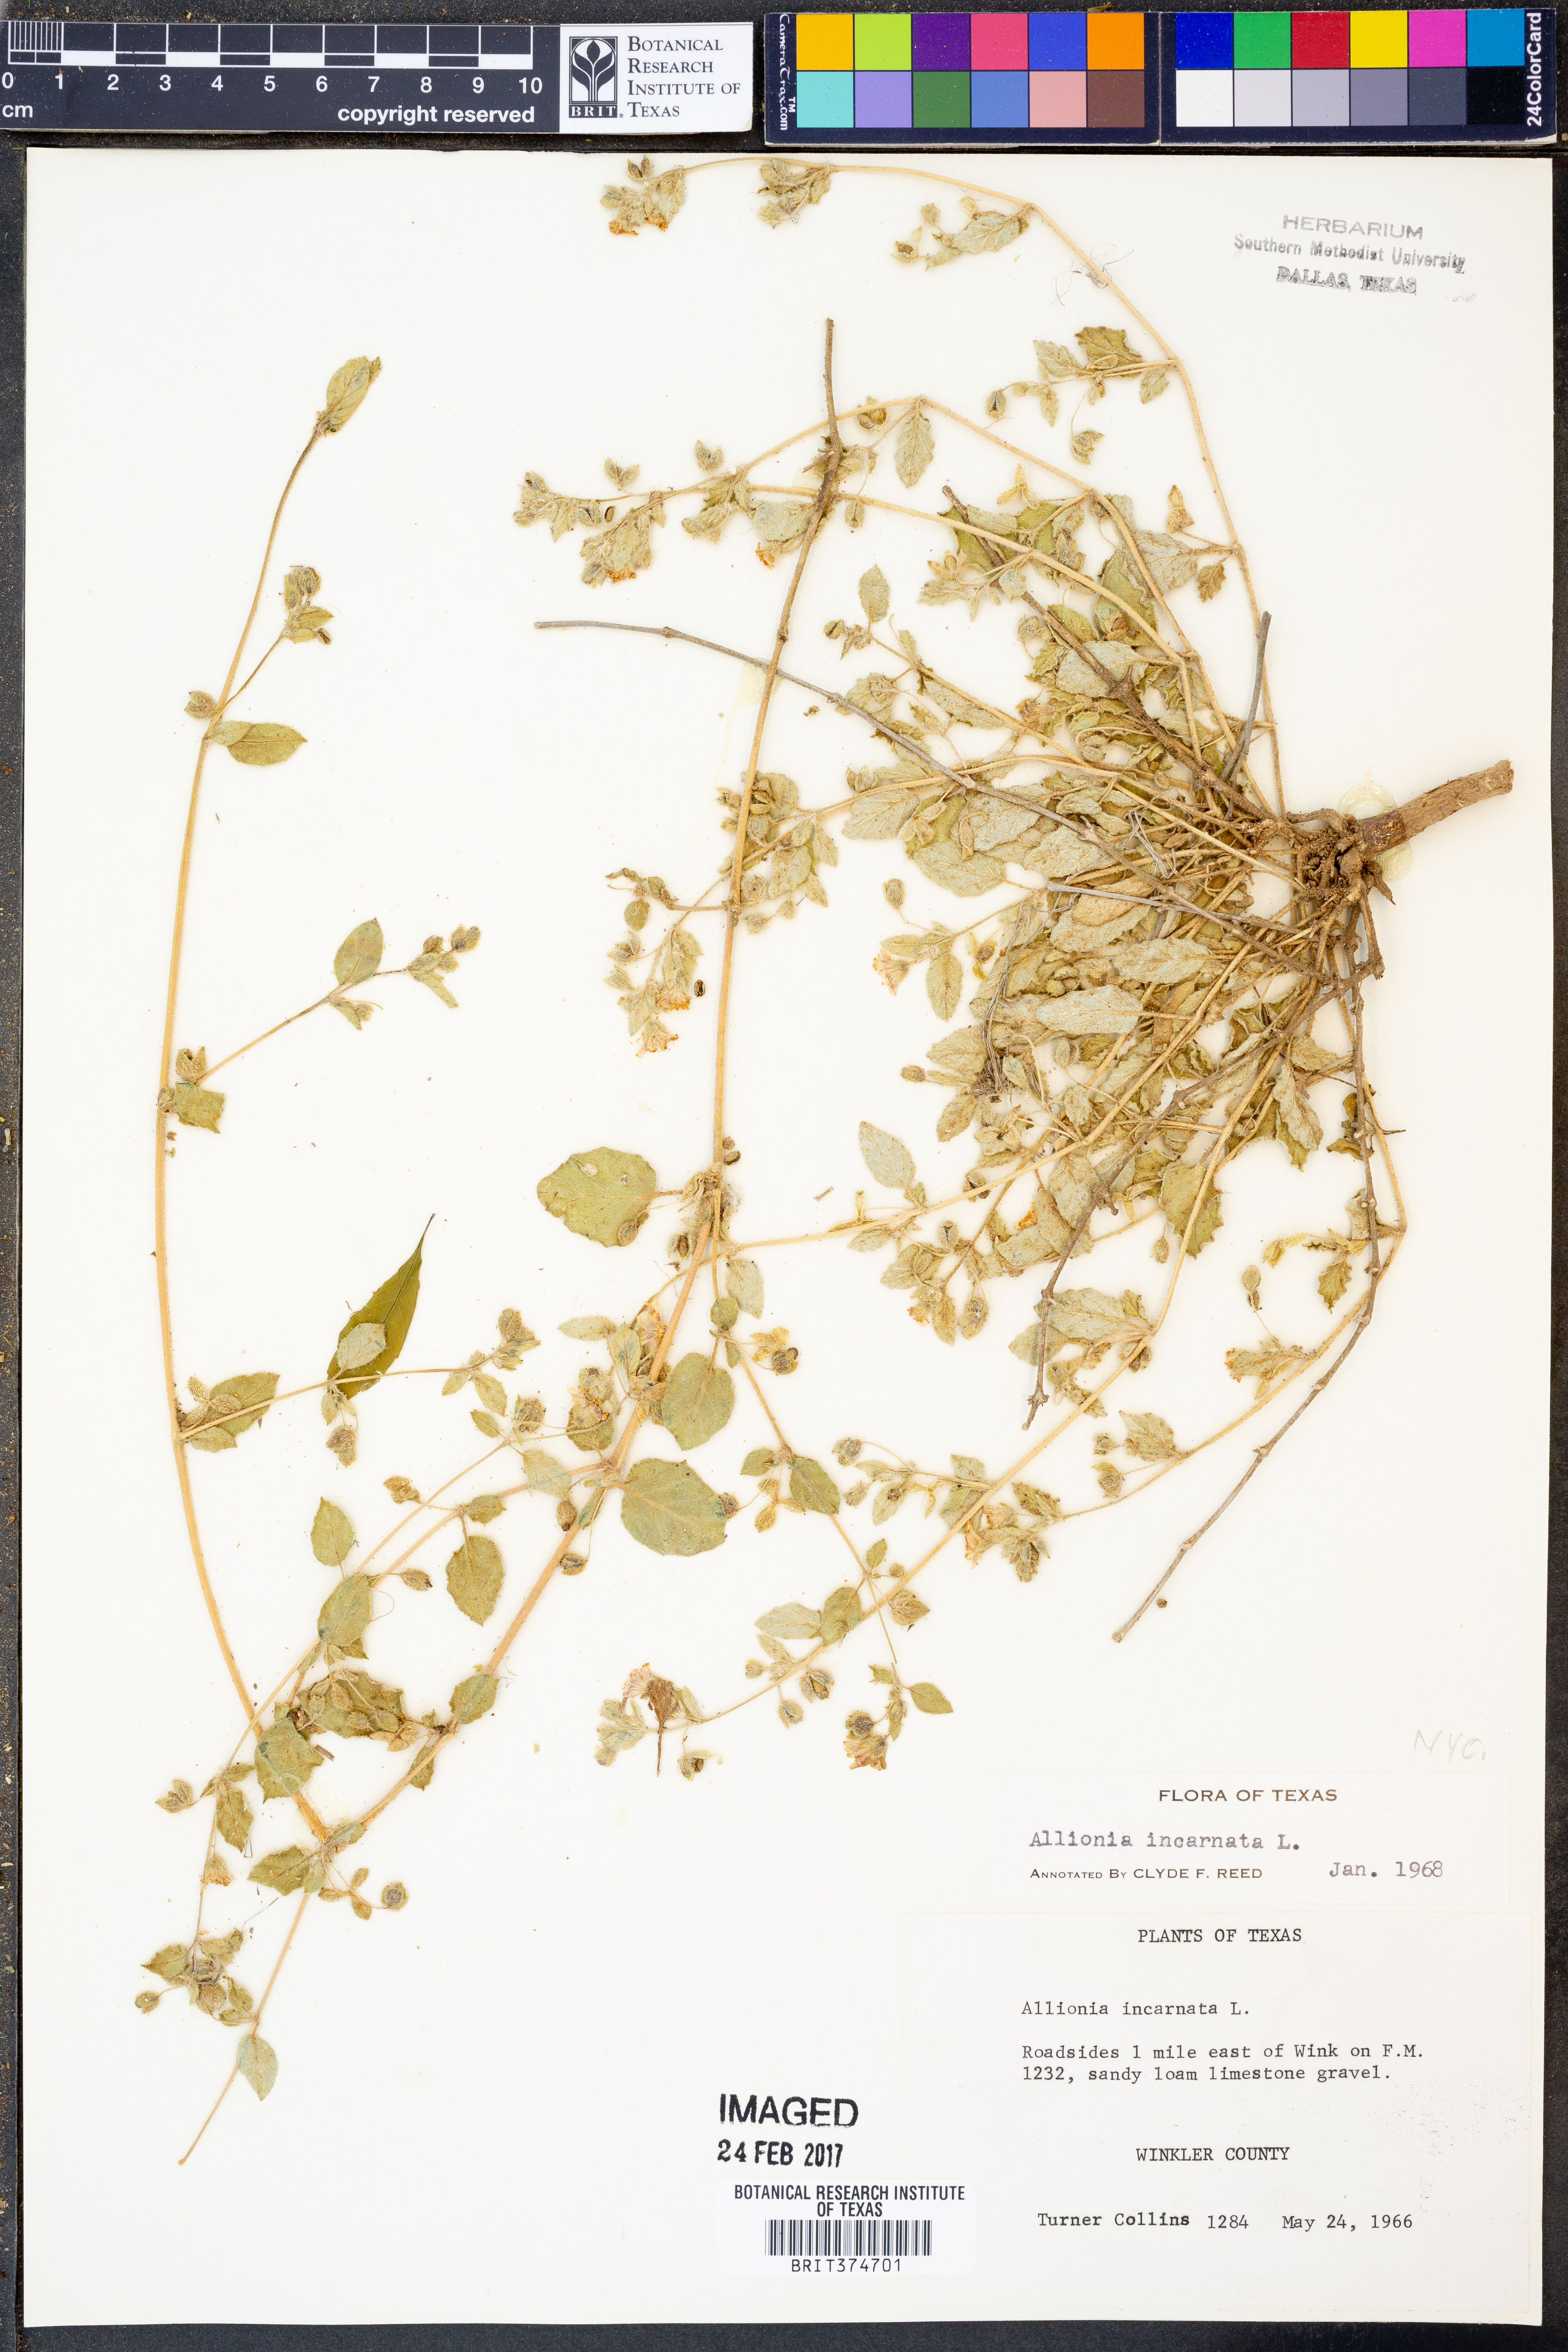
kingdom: Plantae
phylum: Tracheophyta
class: Magnoliopsida
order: Caryophyllales
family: Nyctaginaceae
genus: Allionia
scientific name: Allionia incarnata
